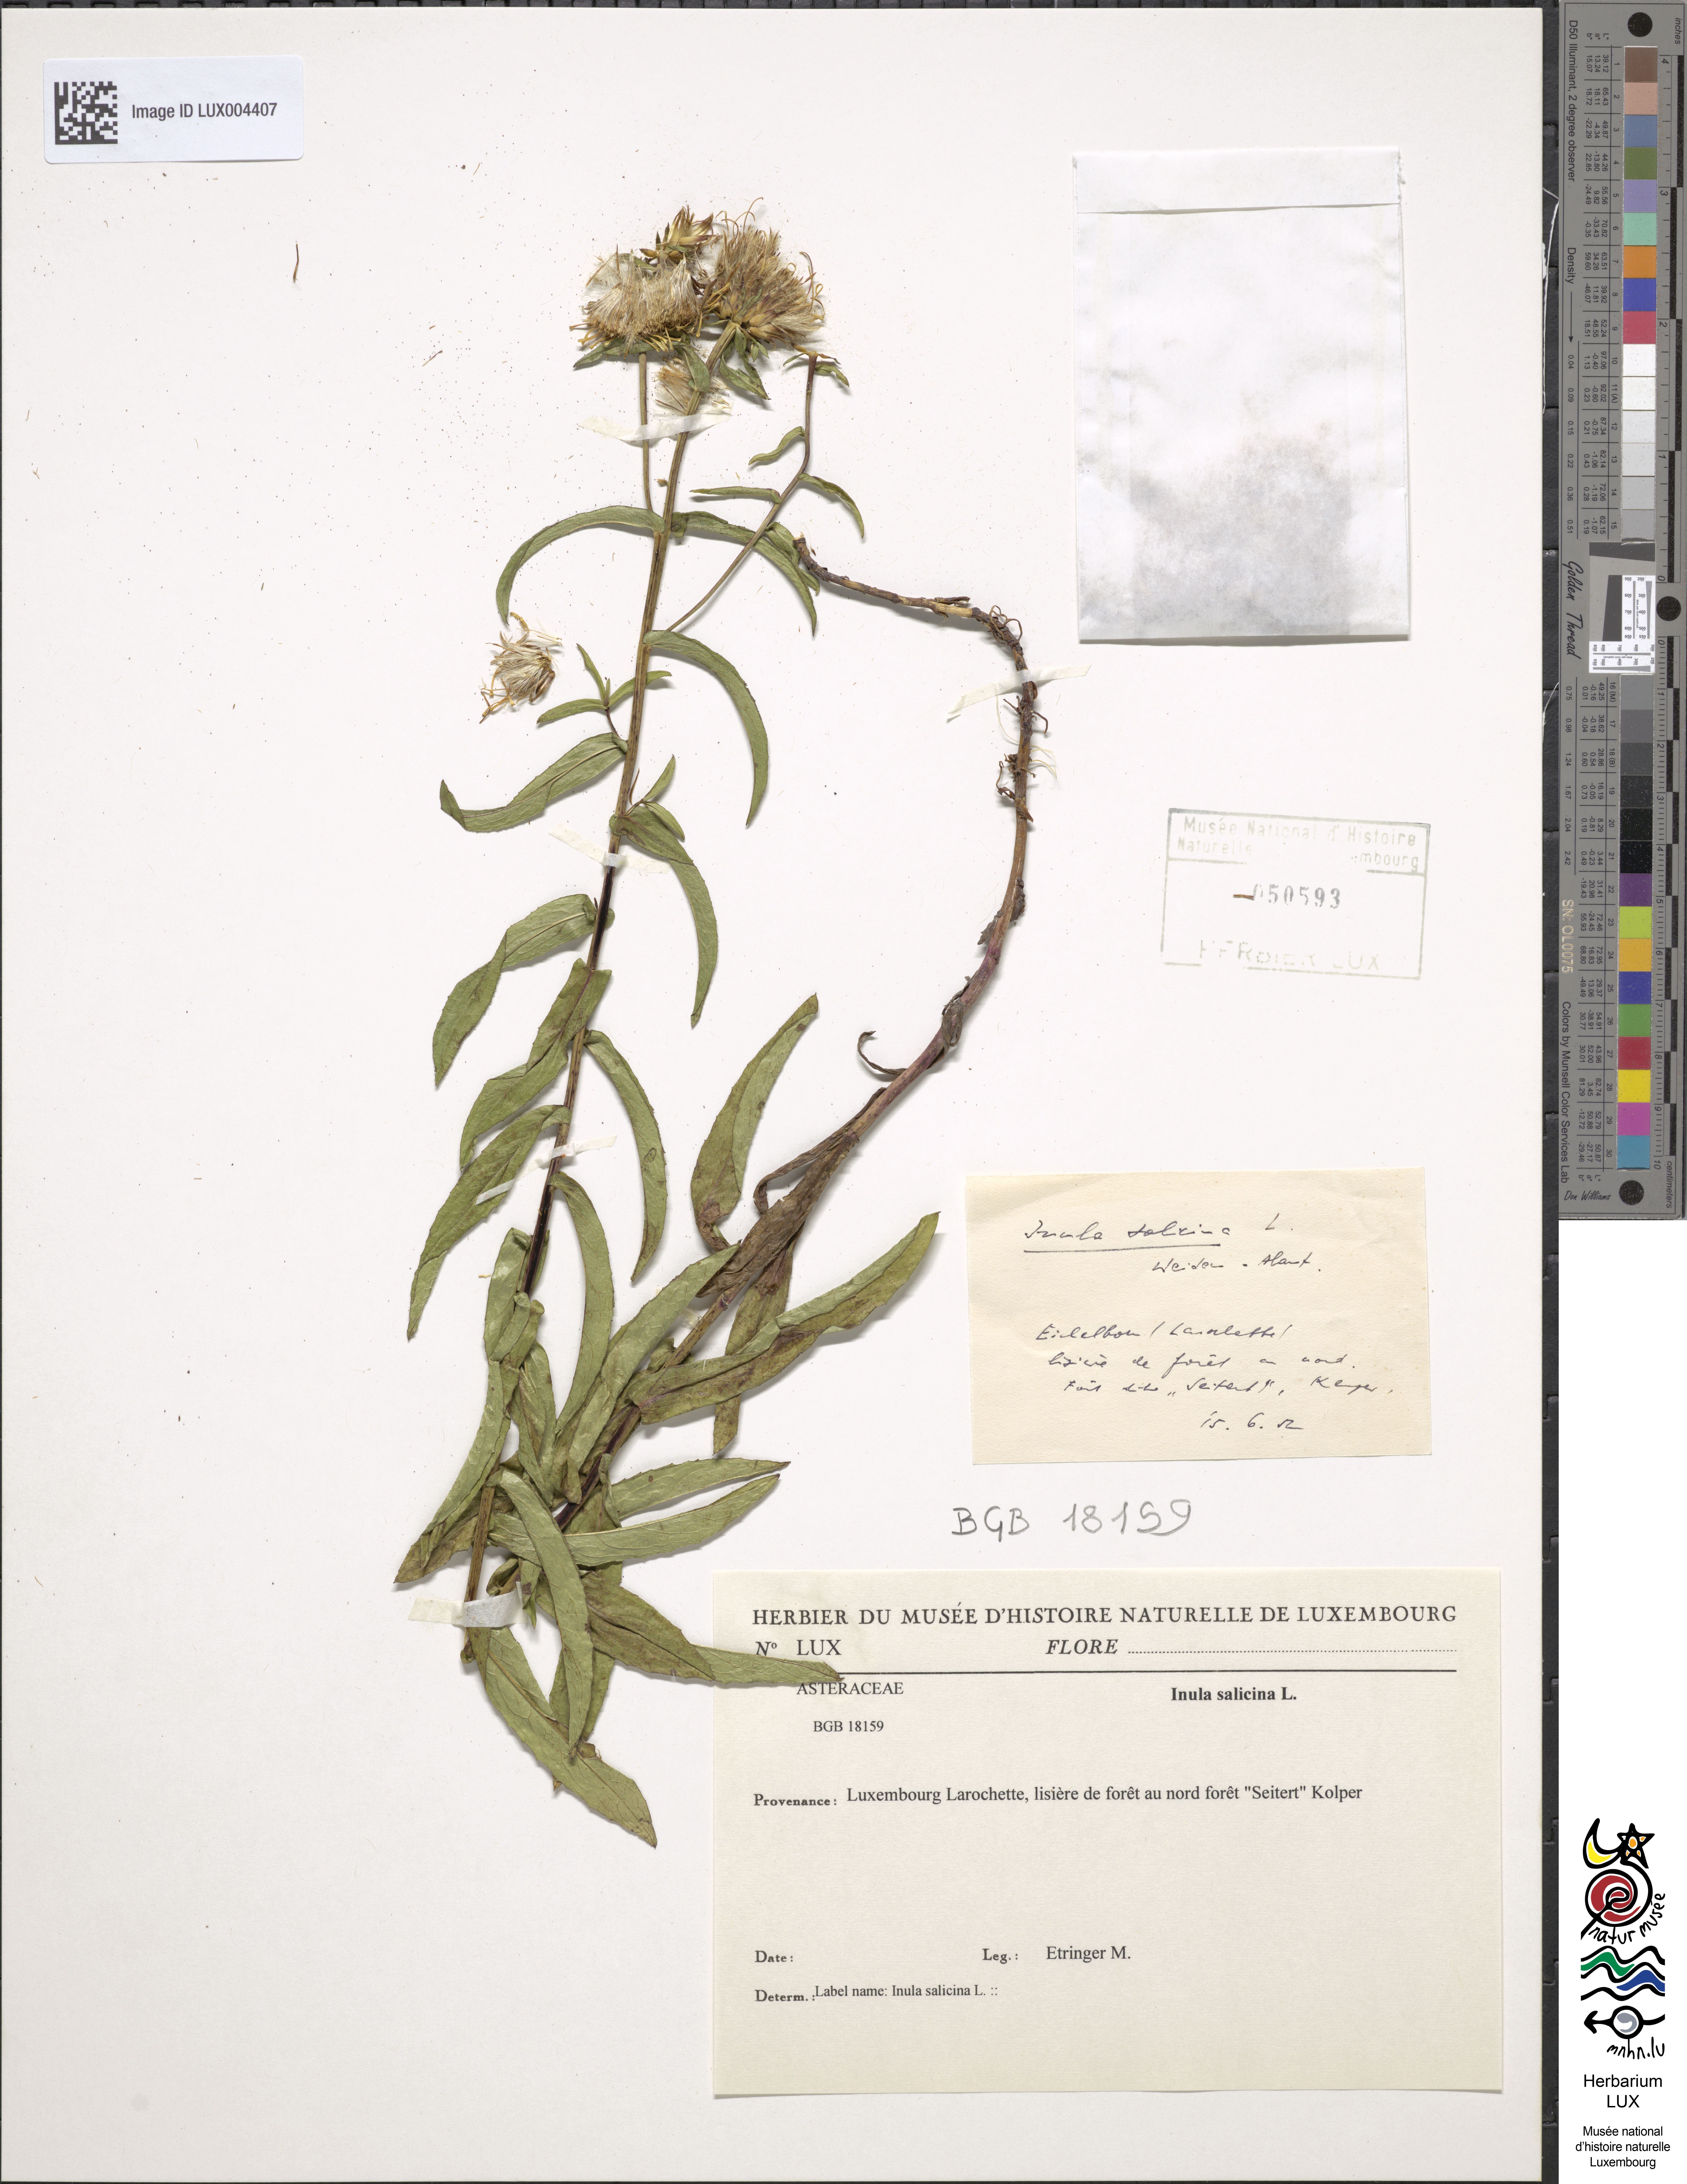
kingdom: Plantae
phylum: Tracheophyta
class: Magnoliopsida
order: Asterales
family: Asteraceae
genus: Pentanema
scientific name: Pentanema salicinum
